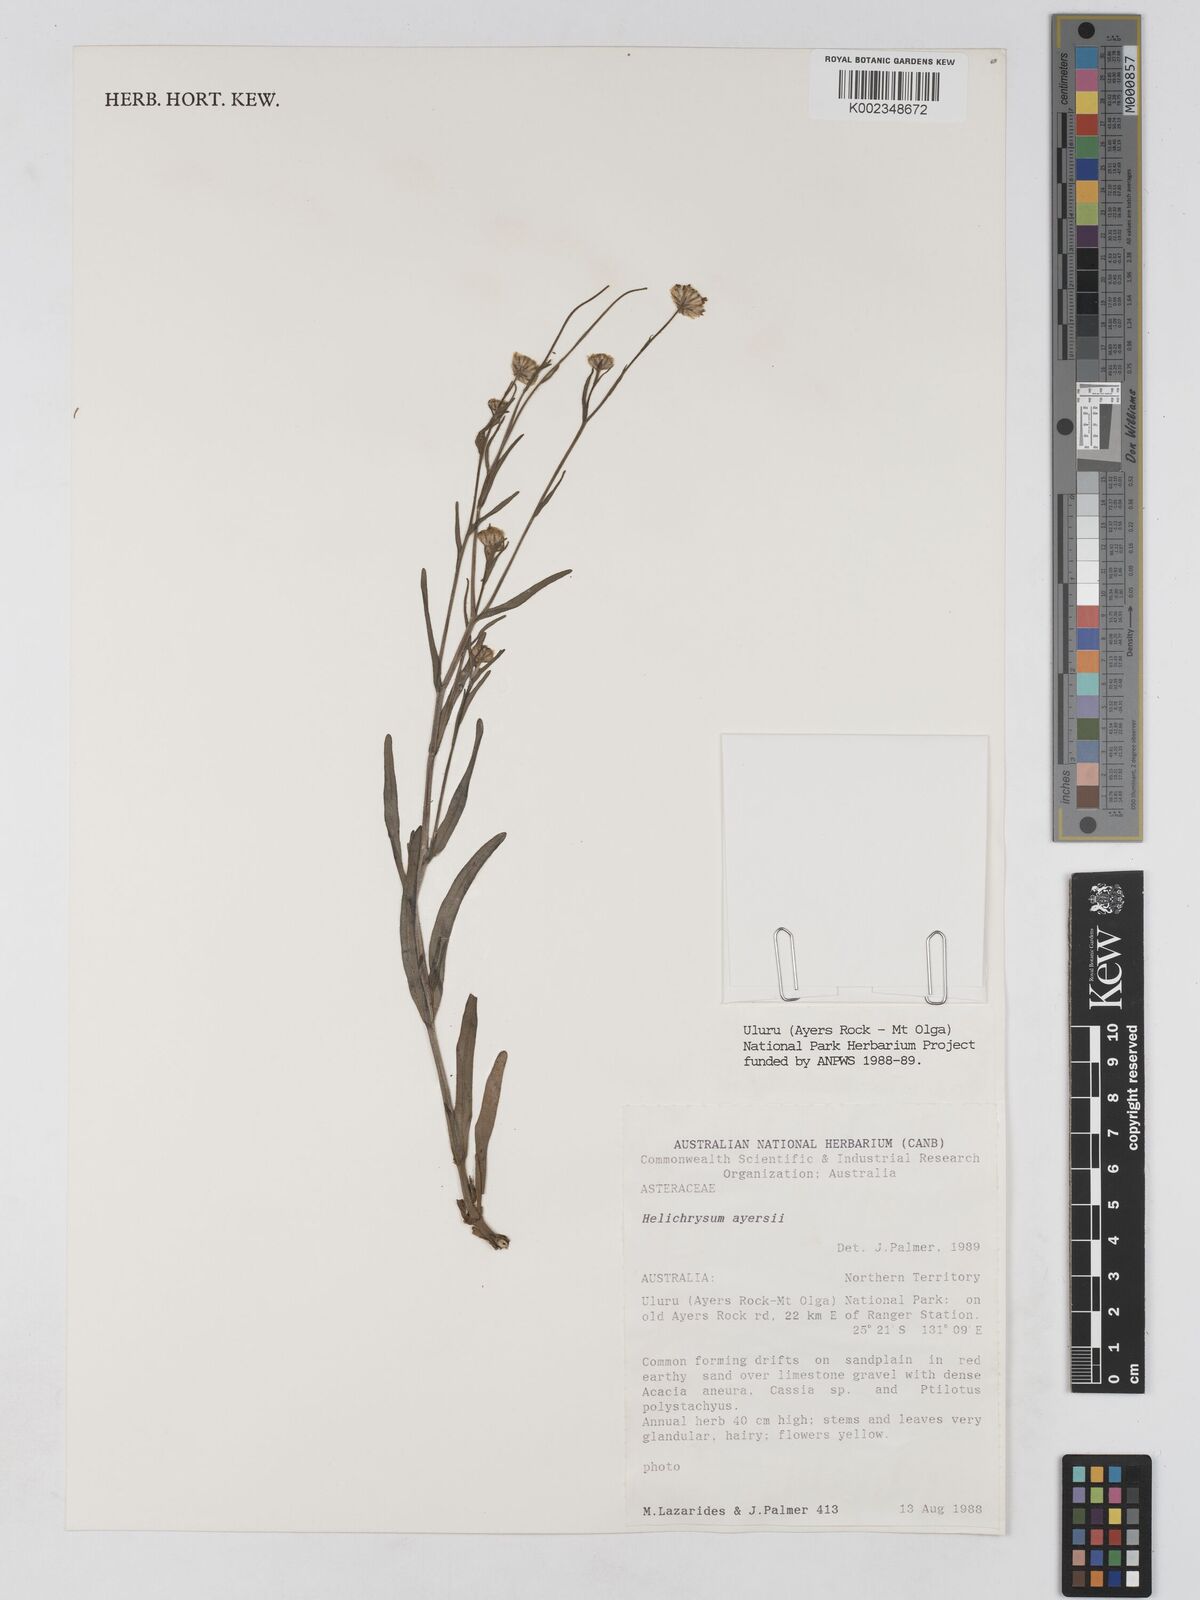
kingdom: Plantae
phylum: Tracheophyta
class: Magnoliopsida
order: Asterales
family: Asteraceae
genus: Schoenia
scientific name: Schoenia ayersii
